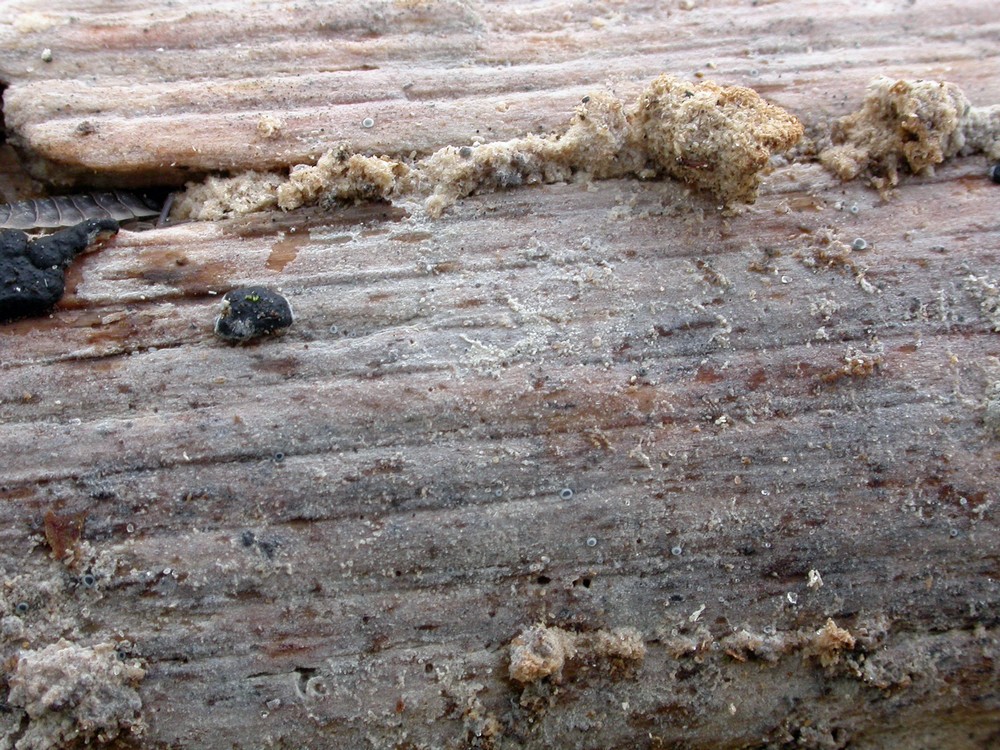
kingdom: Fungi
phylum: Basidiomycota
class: Agaricomycetes
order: Polyporales
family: Hyphodermataceae
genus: Kneiffia
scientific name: Kneiffia subalutacea
